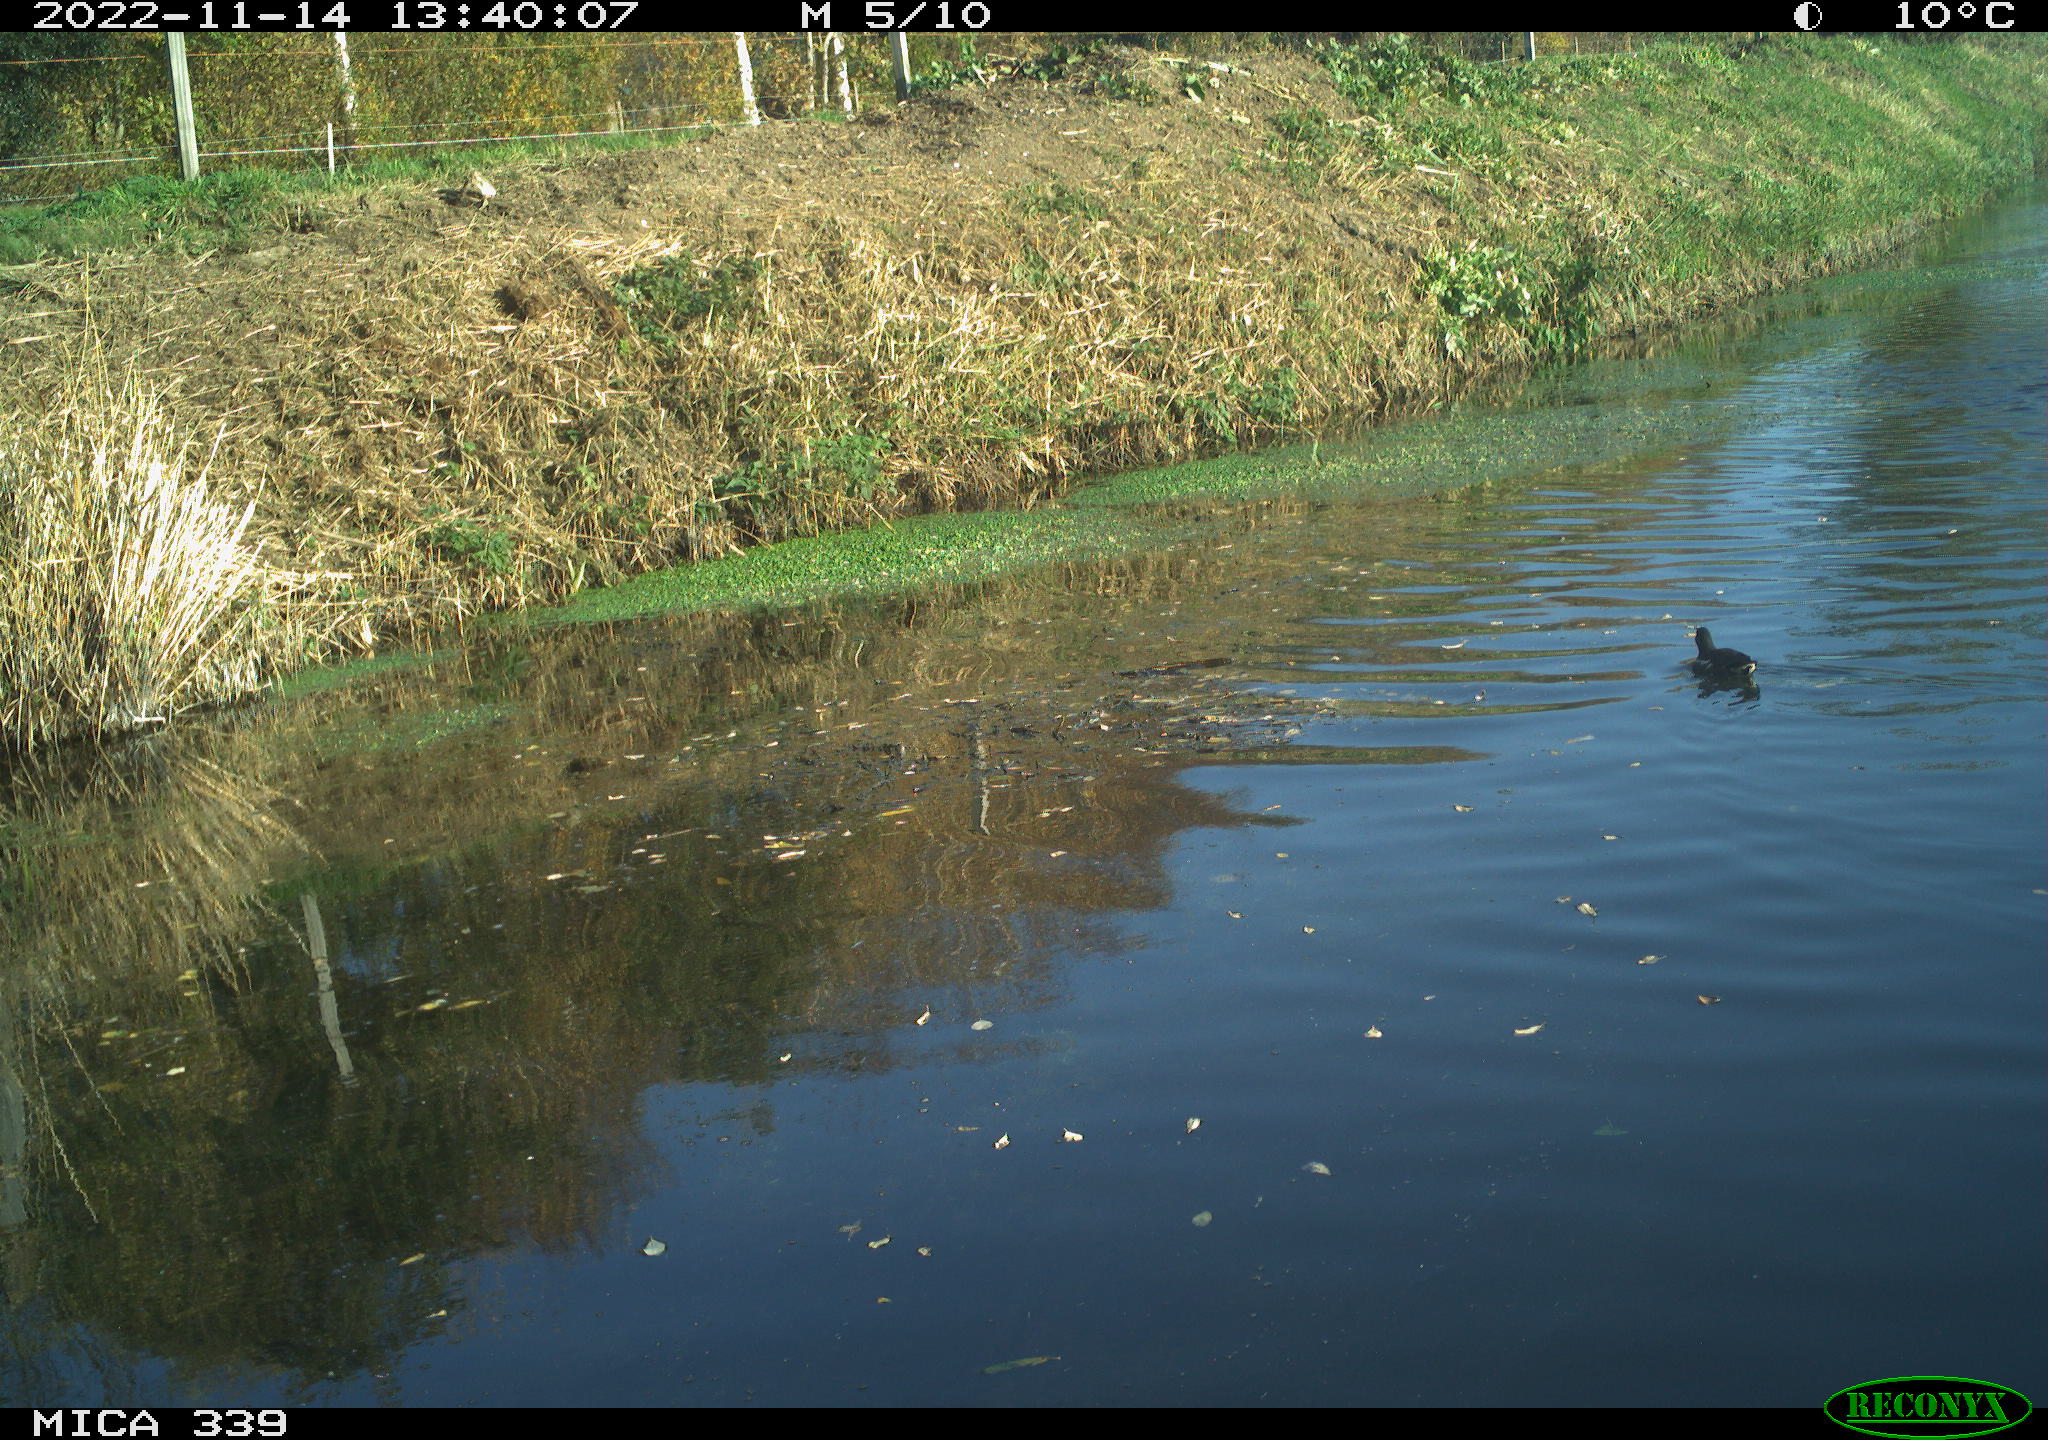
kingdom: Animalia
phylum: Chordata
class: Aves
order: Gruiformes
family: Rallidae
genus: Gallinula
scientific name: Gallinula chloropus
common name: Common moorhen
